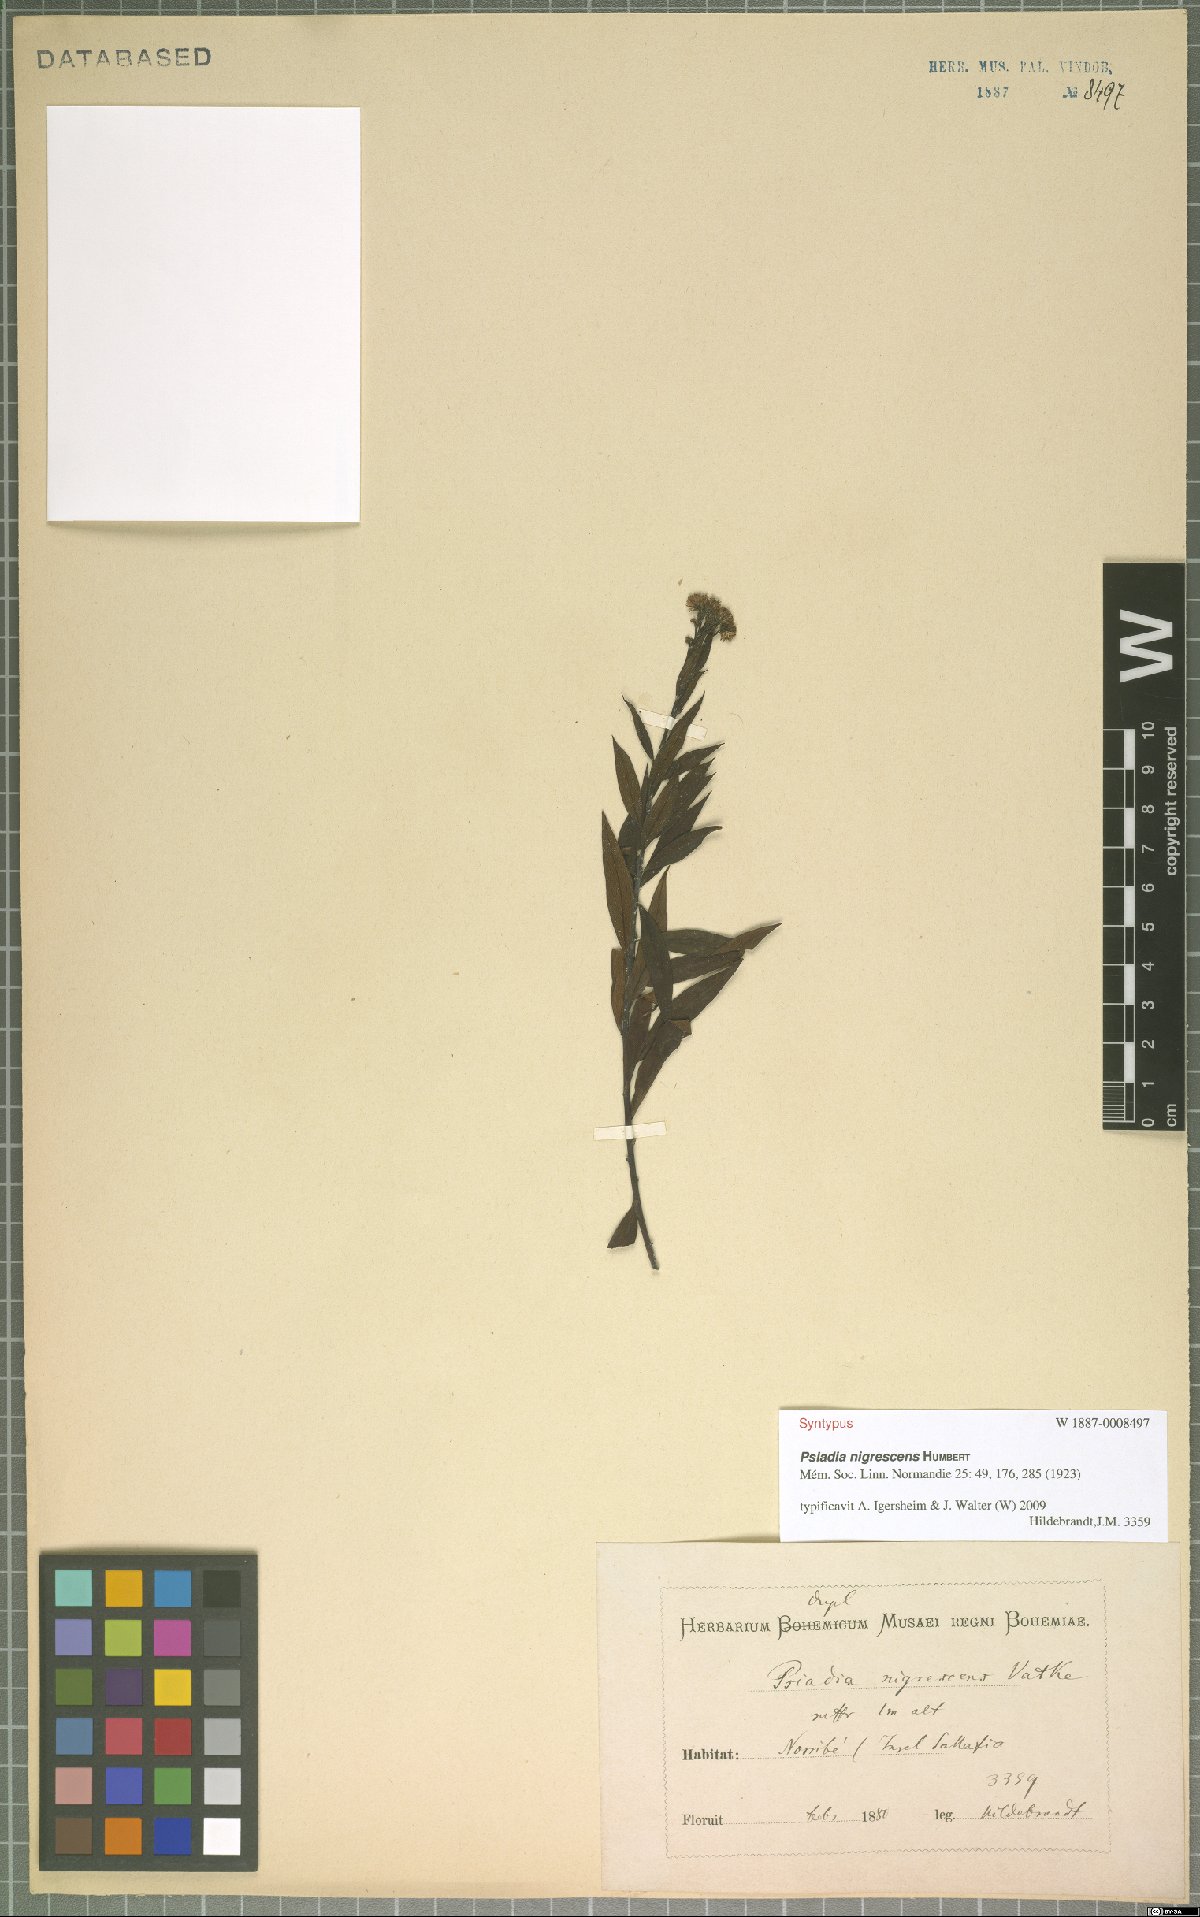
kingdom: Plantae
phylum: Tracheophyta
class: Magnoliopsida
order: Asterales
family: Asteraceae
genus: Psiadia
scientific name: Psiadia nigrescens
